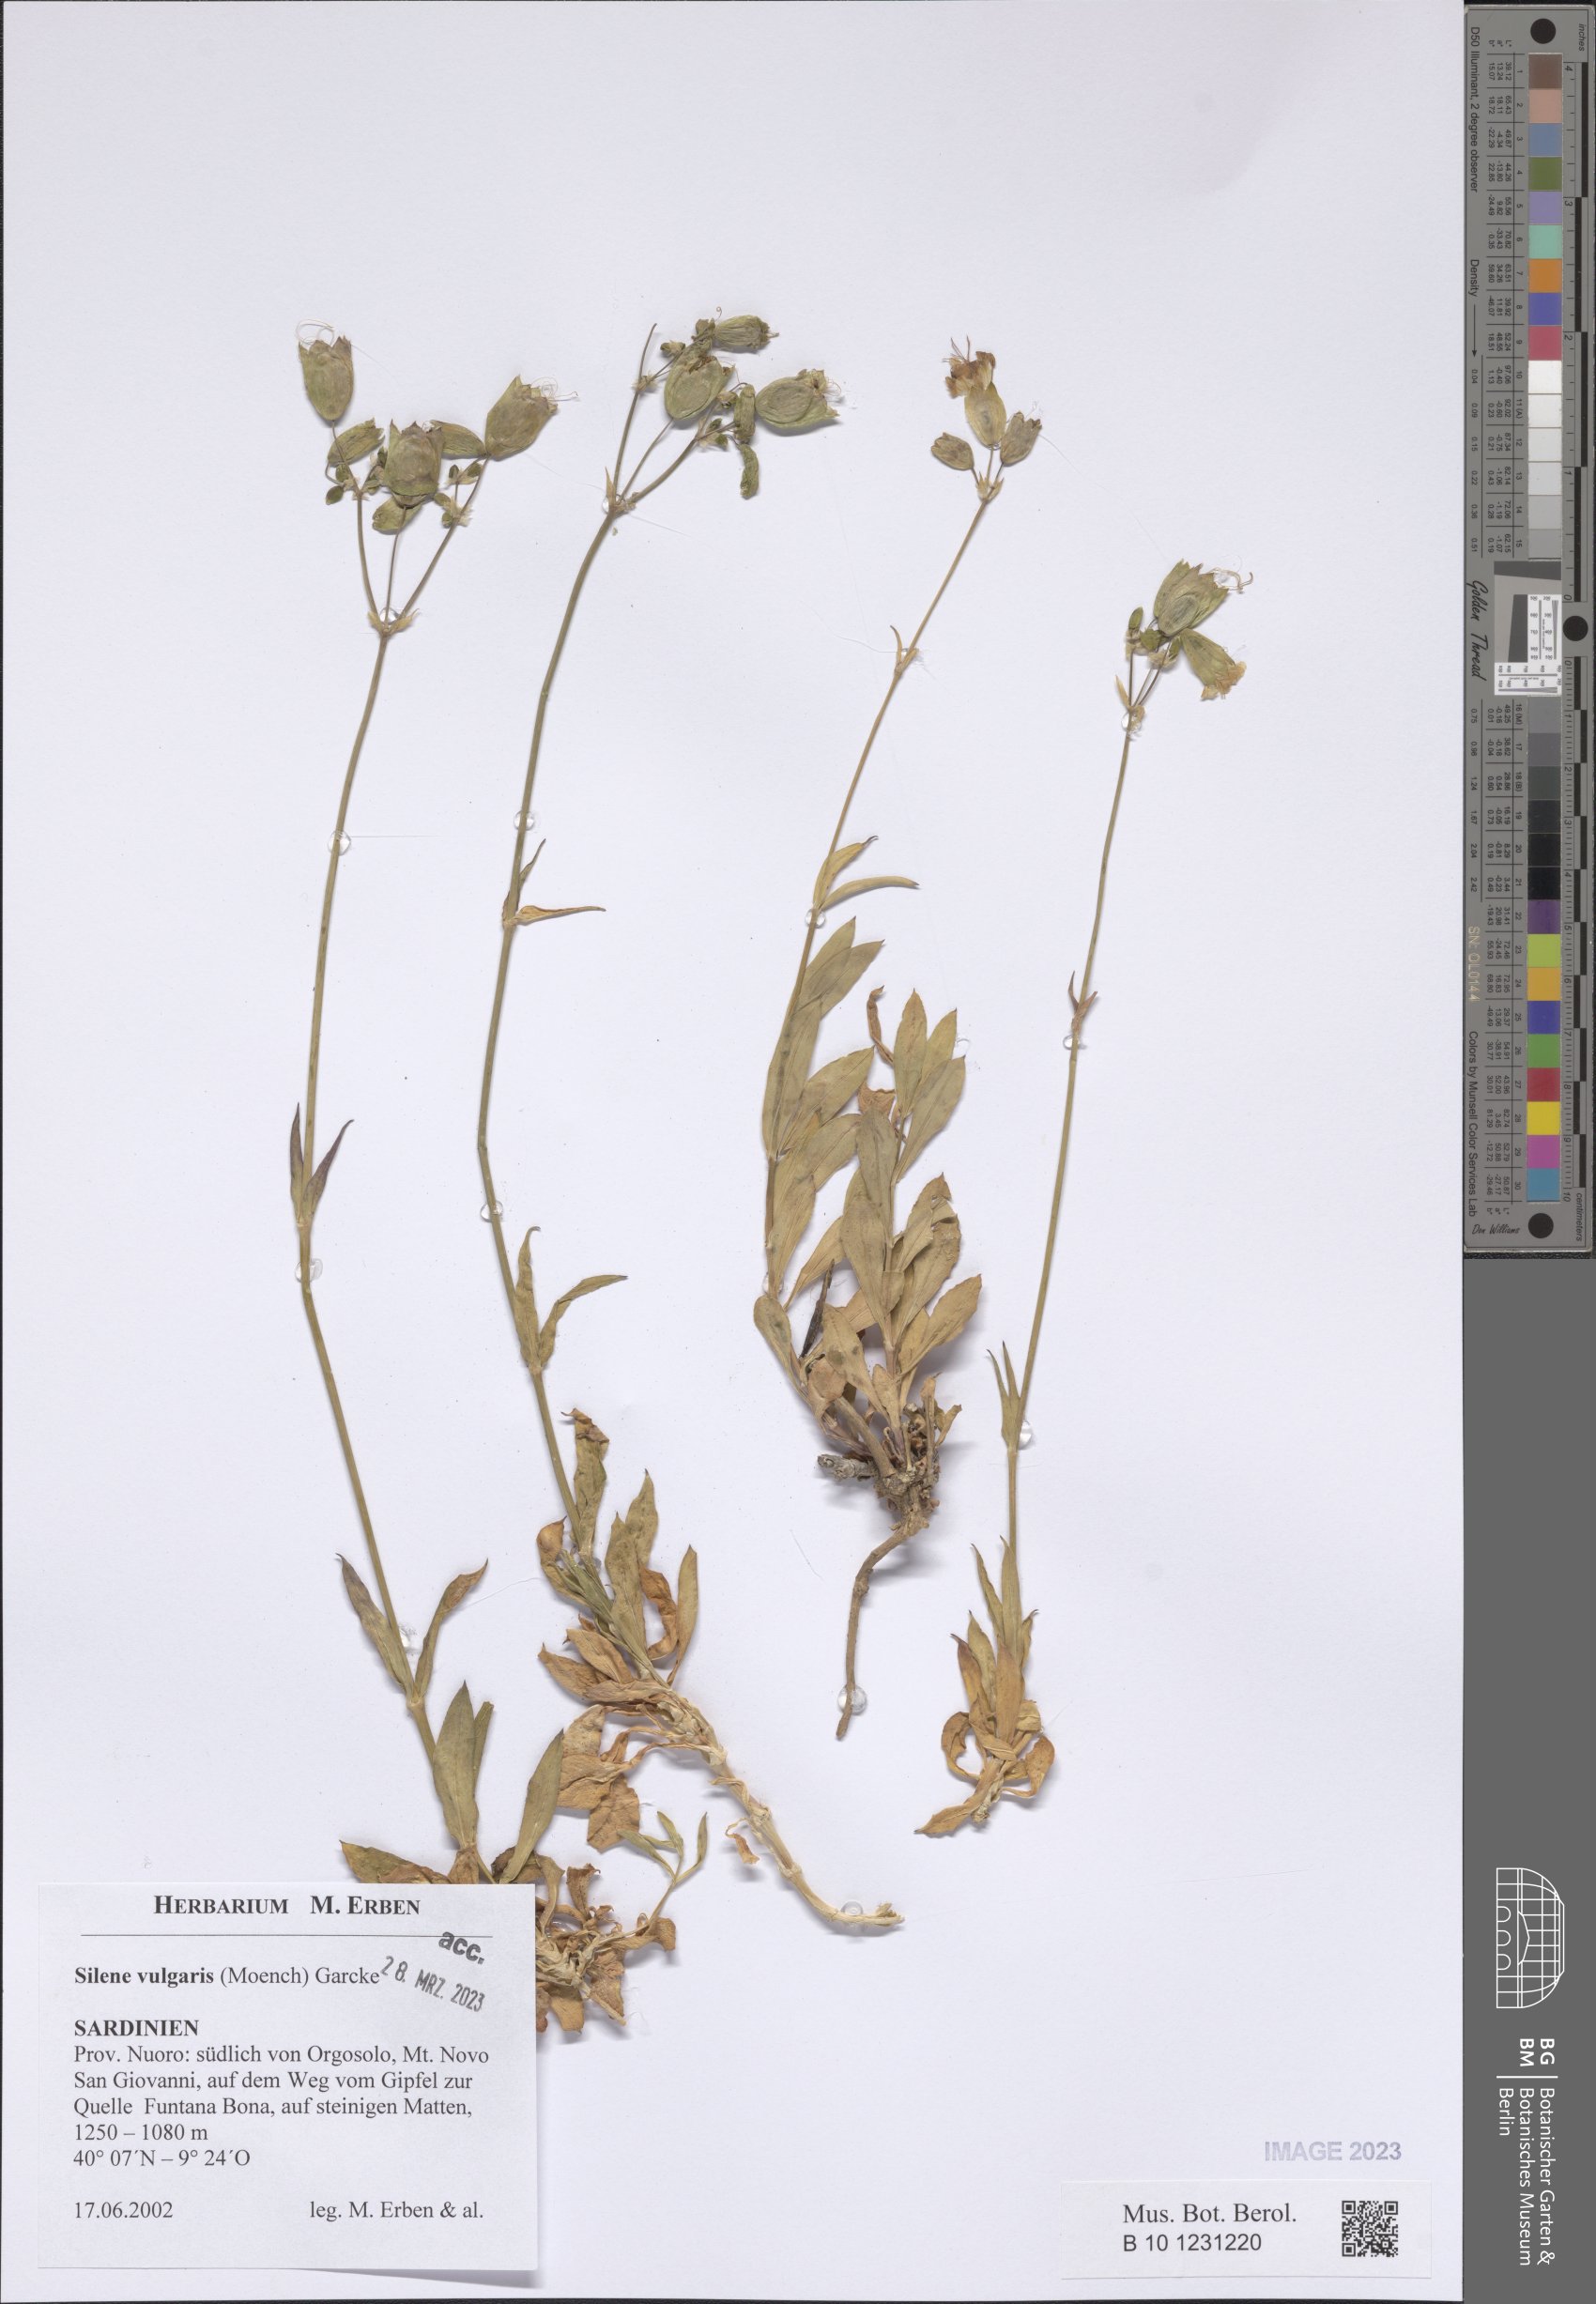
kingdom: Plantae
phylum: Tracheophyta
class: Magnoliopsida
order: Caryophyllales
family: Caryophyllaceae
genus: Silene
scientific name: Silene vulgaris
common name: Bladder campion
